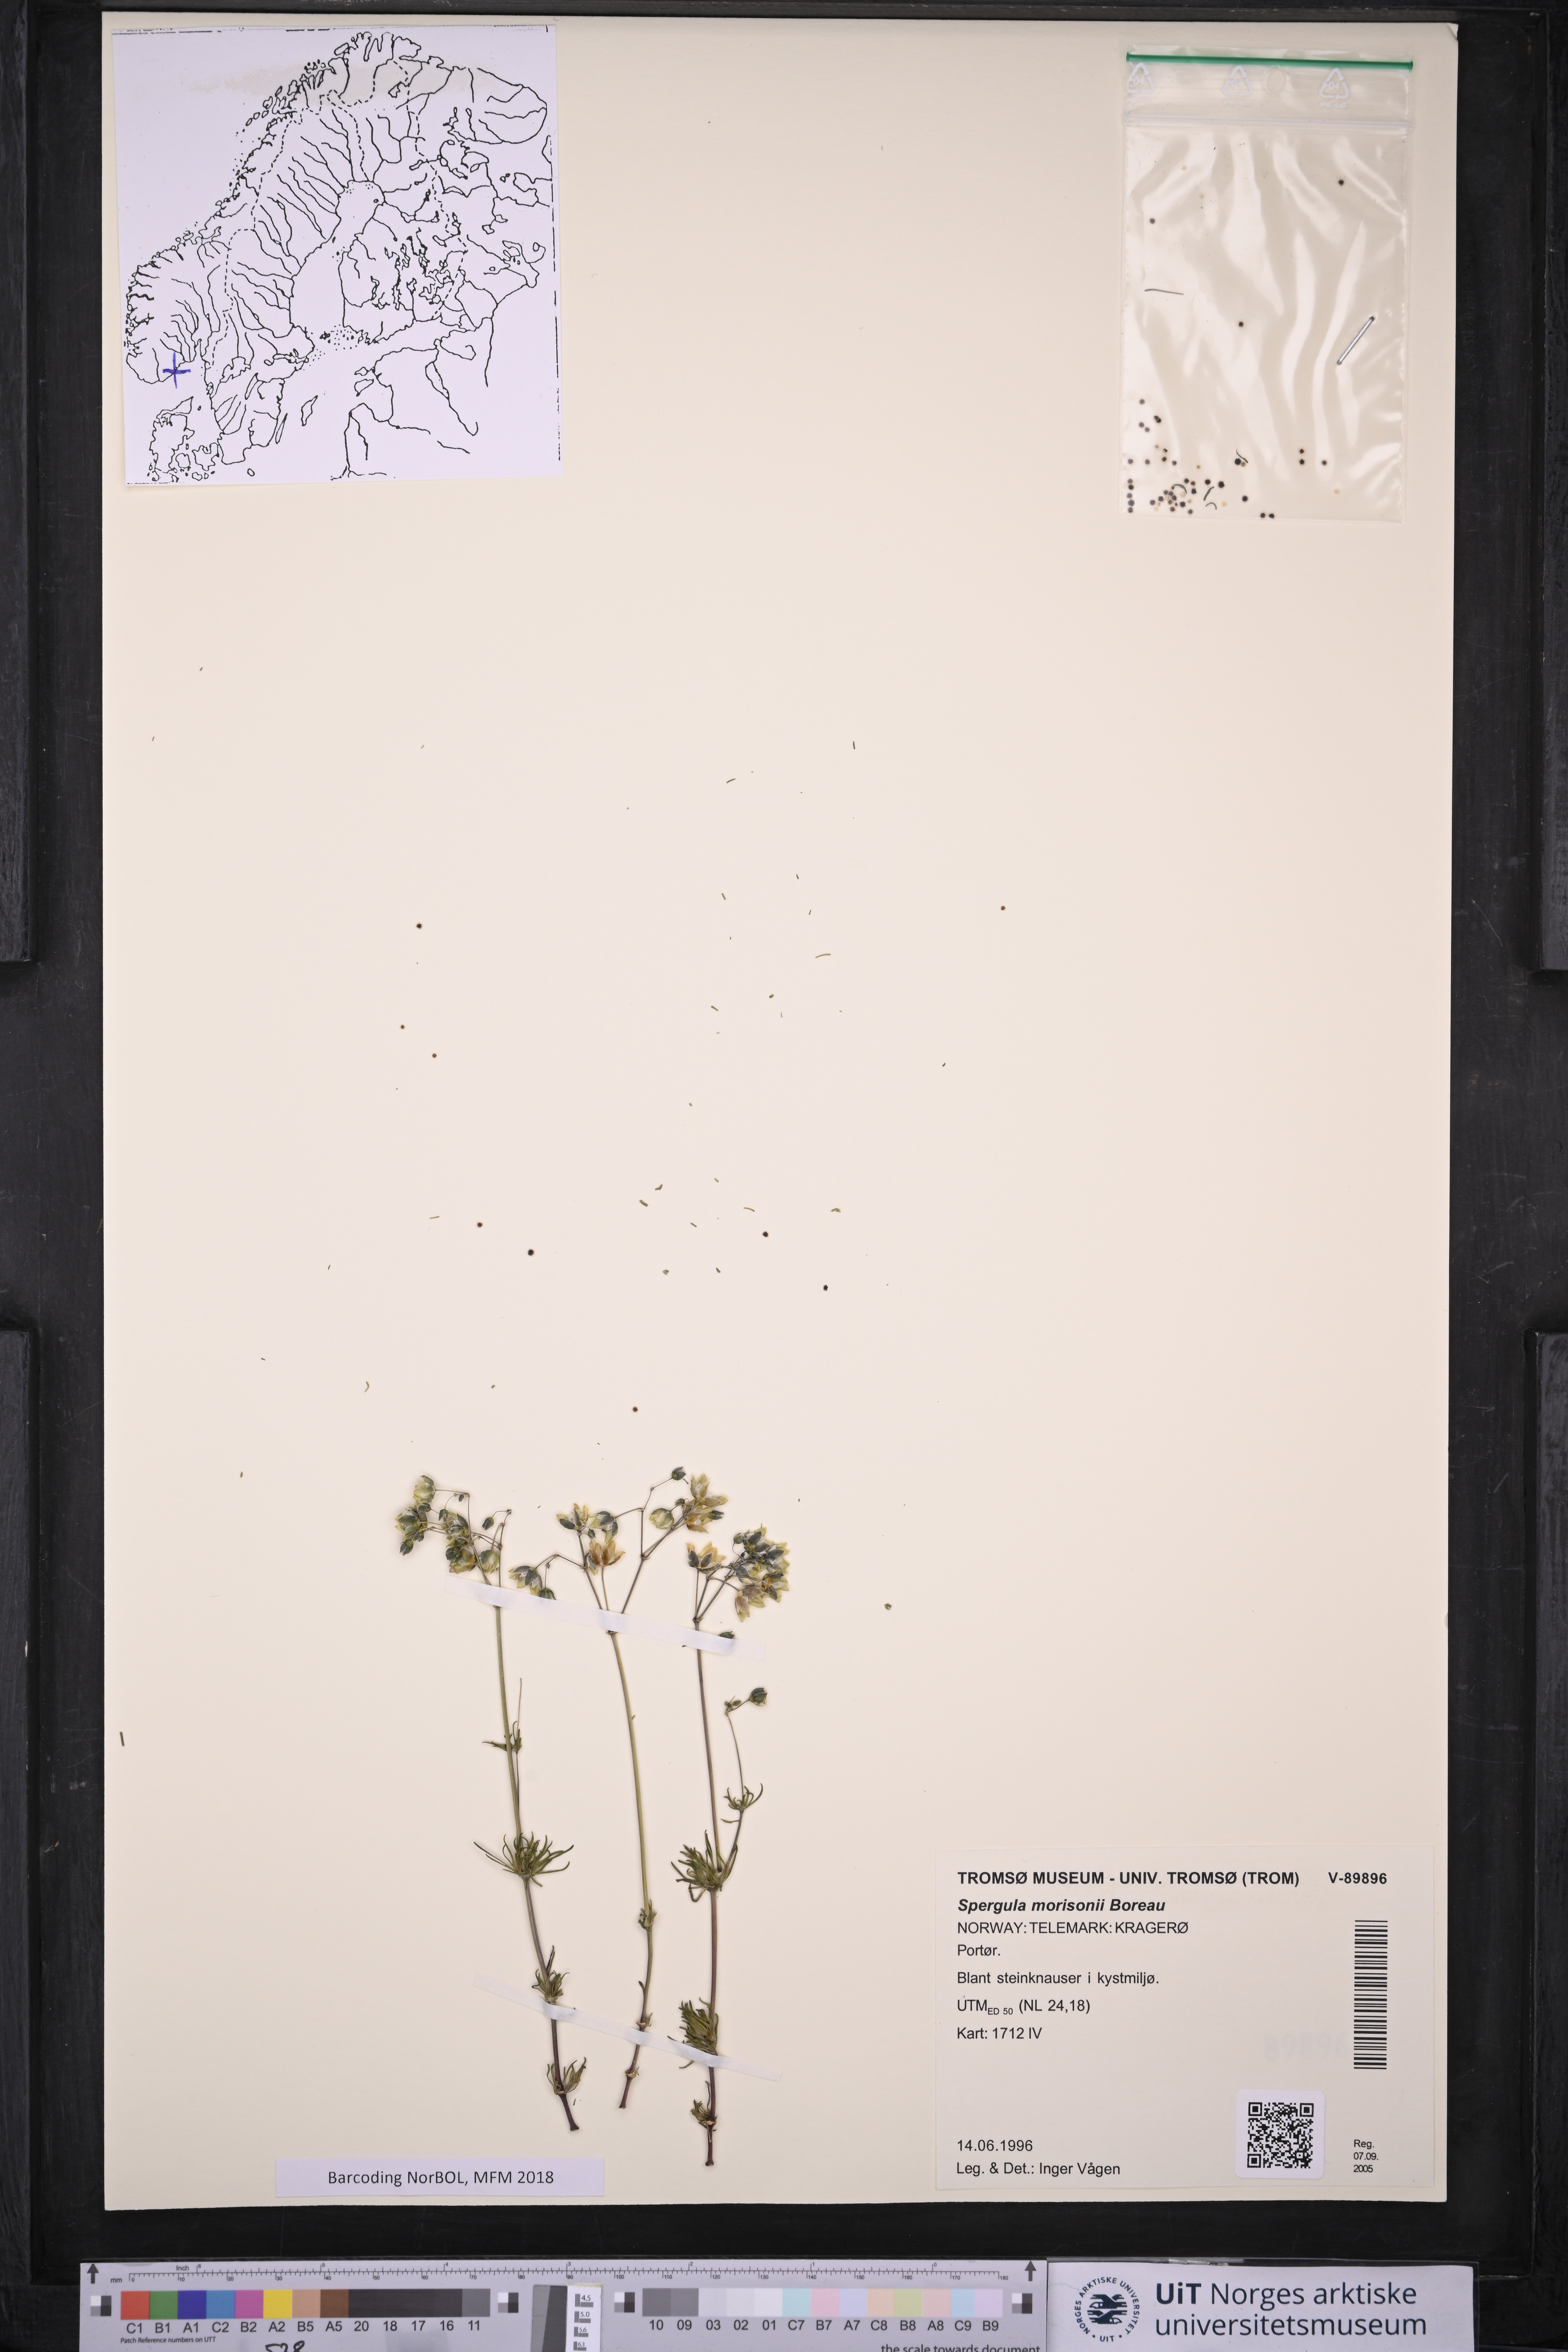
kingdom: Plantae
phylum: Tracheophyta
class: Magnoliopsida
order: Caryophyllales
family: Caryophyllaceae
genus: Spergula
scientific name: Spergula morisonii
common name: Pearlwort spurrey
